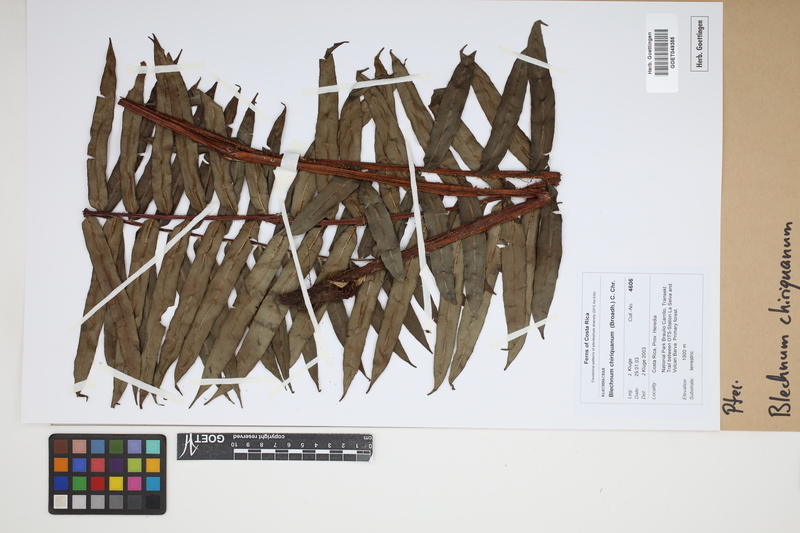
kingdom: Plantae
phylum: Tracheophyta
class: Polypodiopsida
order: Polypodiales
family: Blechnaceae
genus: Parablechnum
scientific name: Parablechnum chiriquanum
